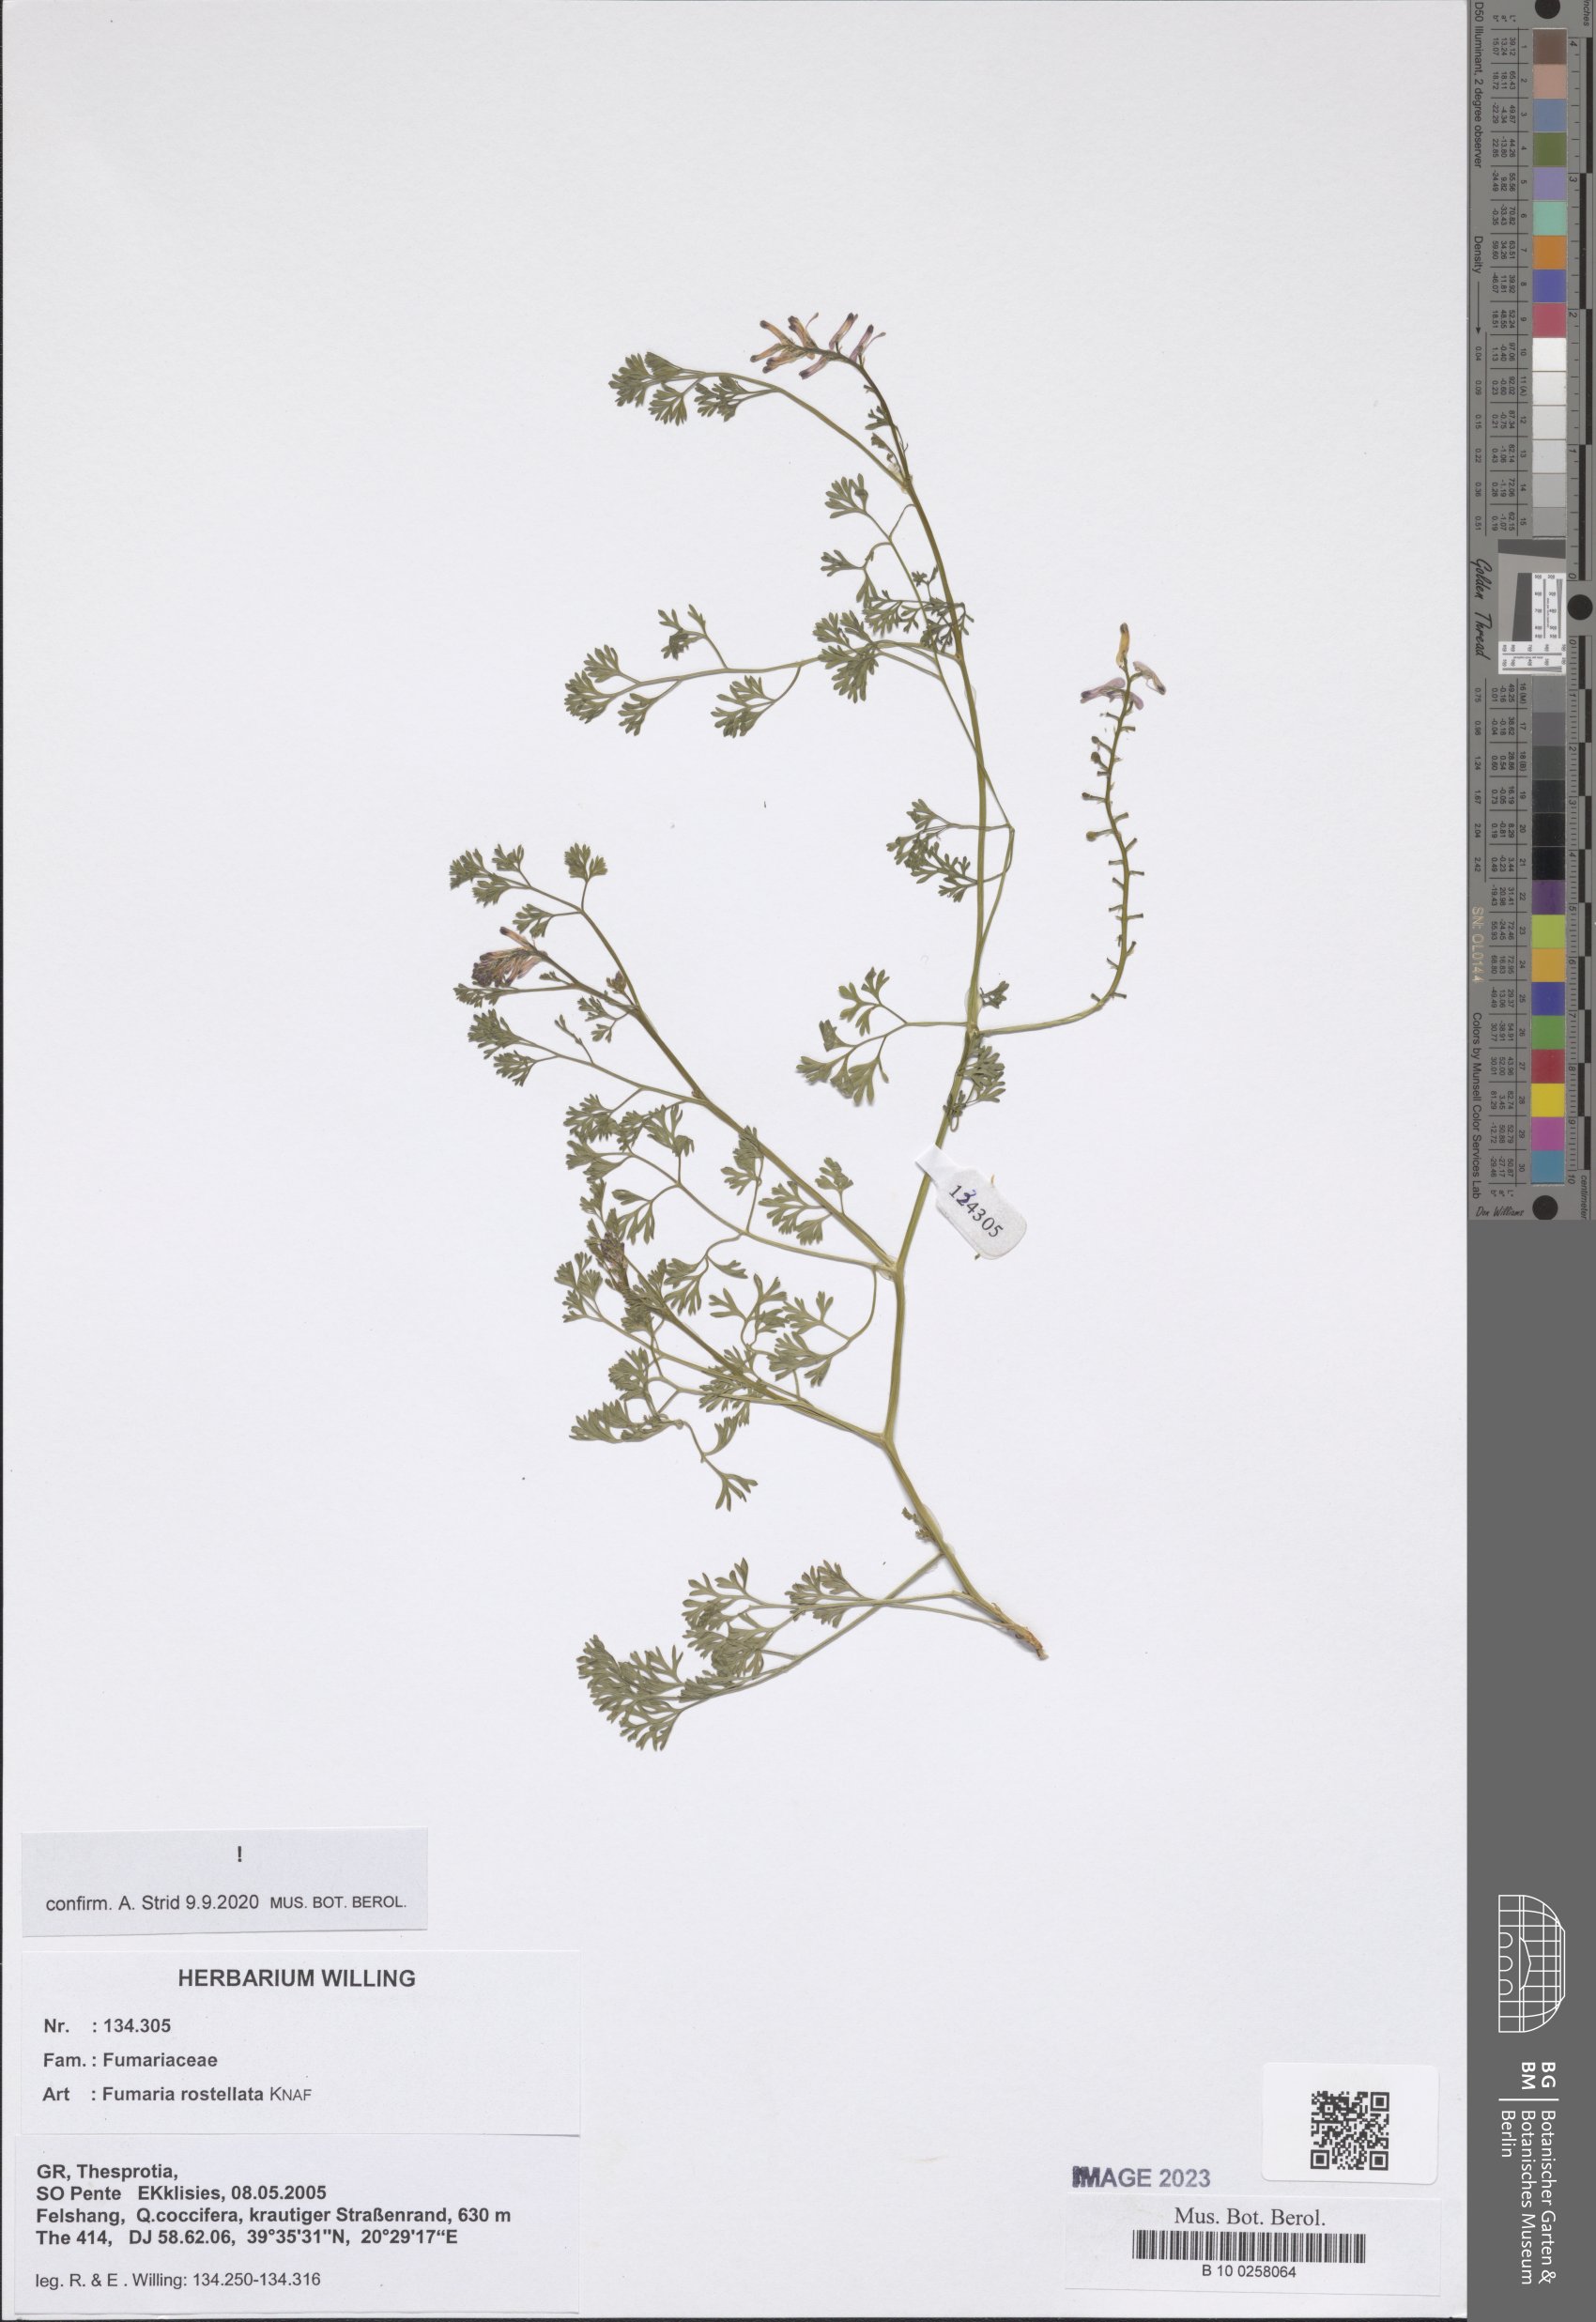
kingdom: Plantae
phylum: Tracheophyta
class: Magnoliopsida
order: Ranunculales
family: Papaveraceae
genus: Fumaria
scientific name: Fumaria rostellata
